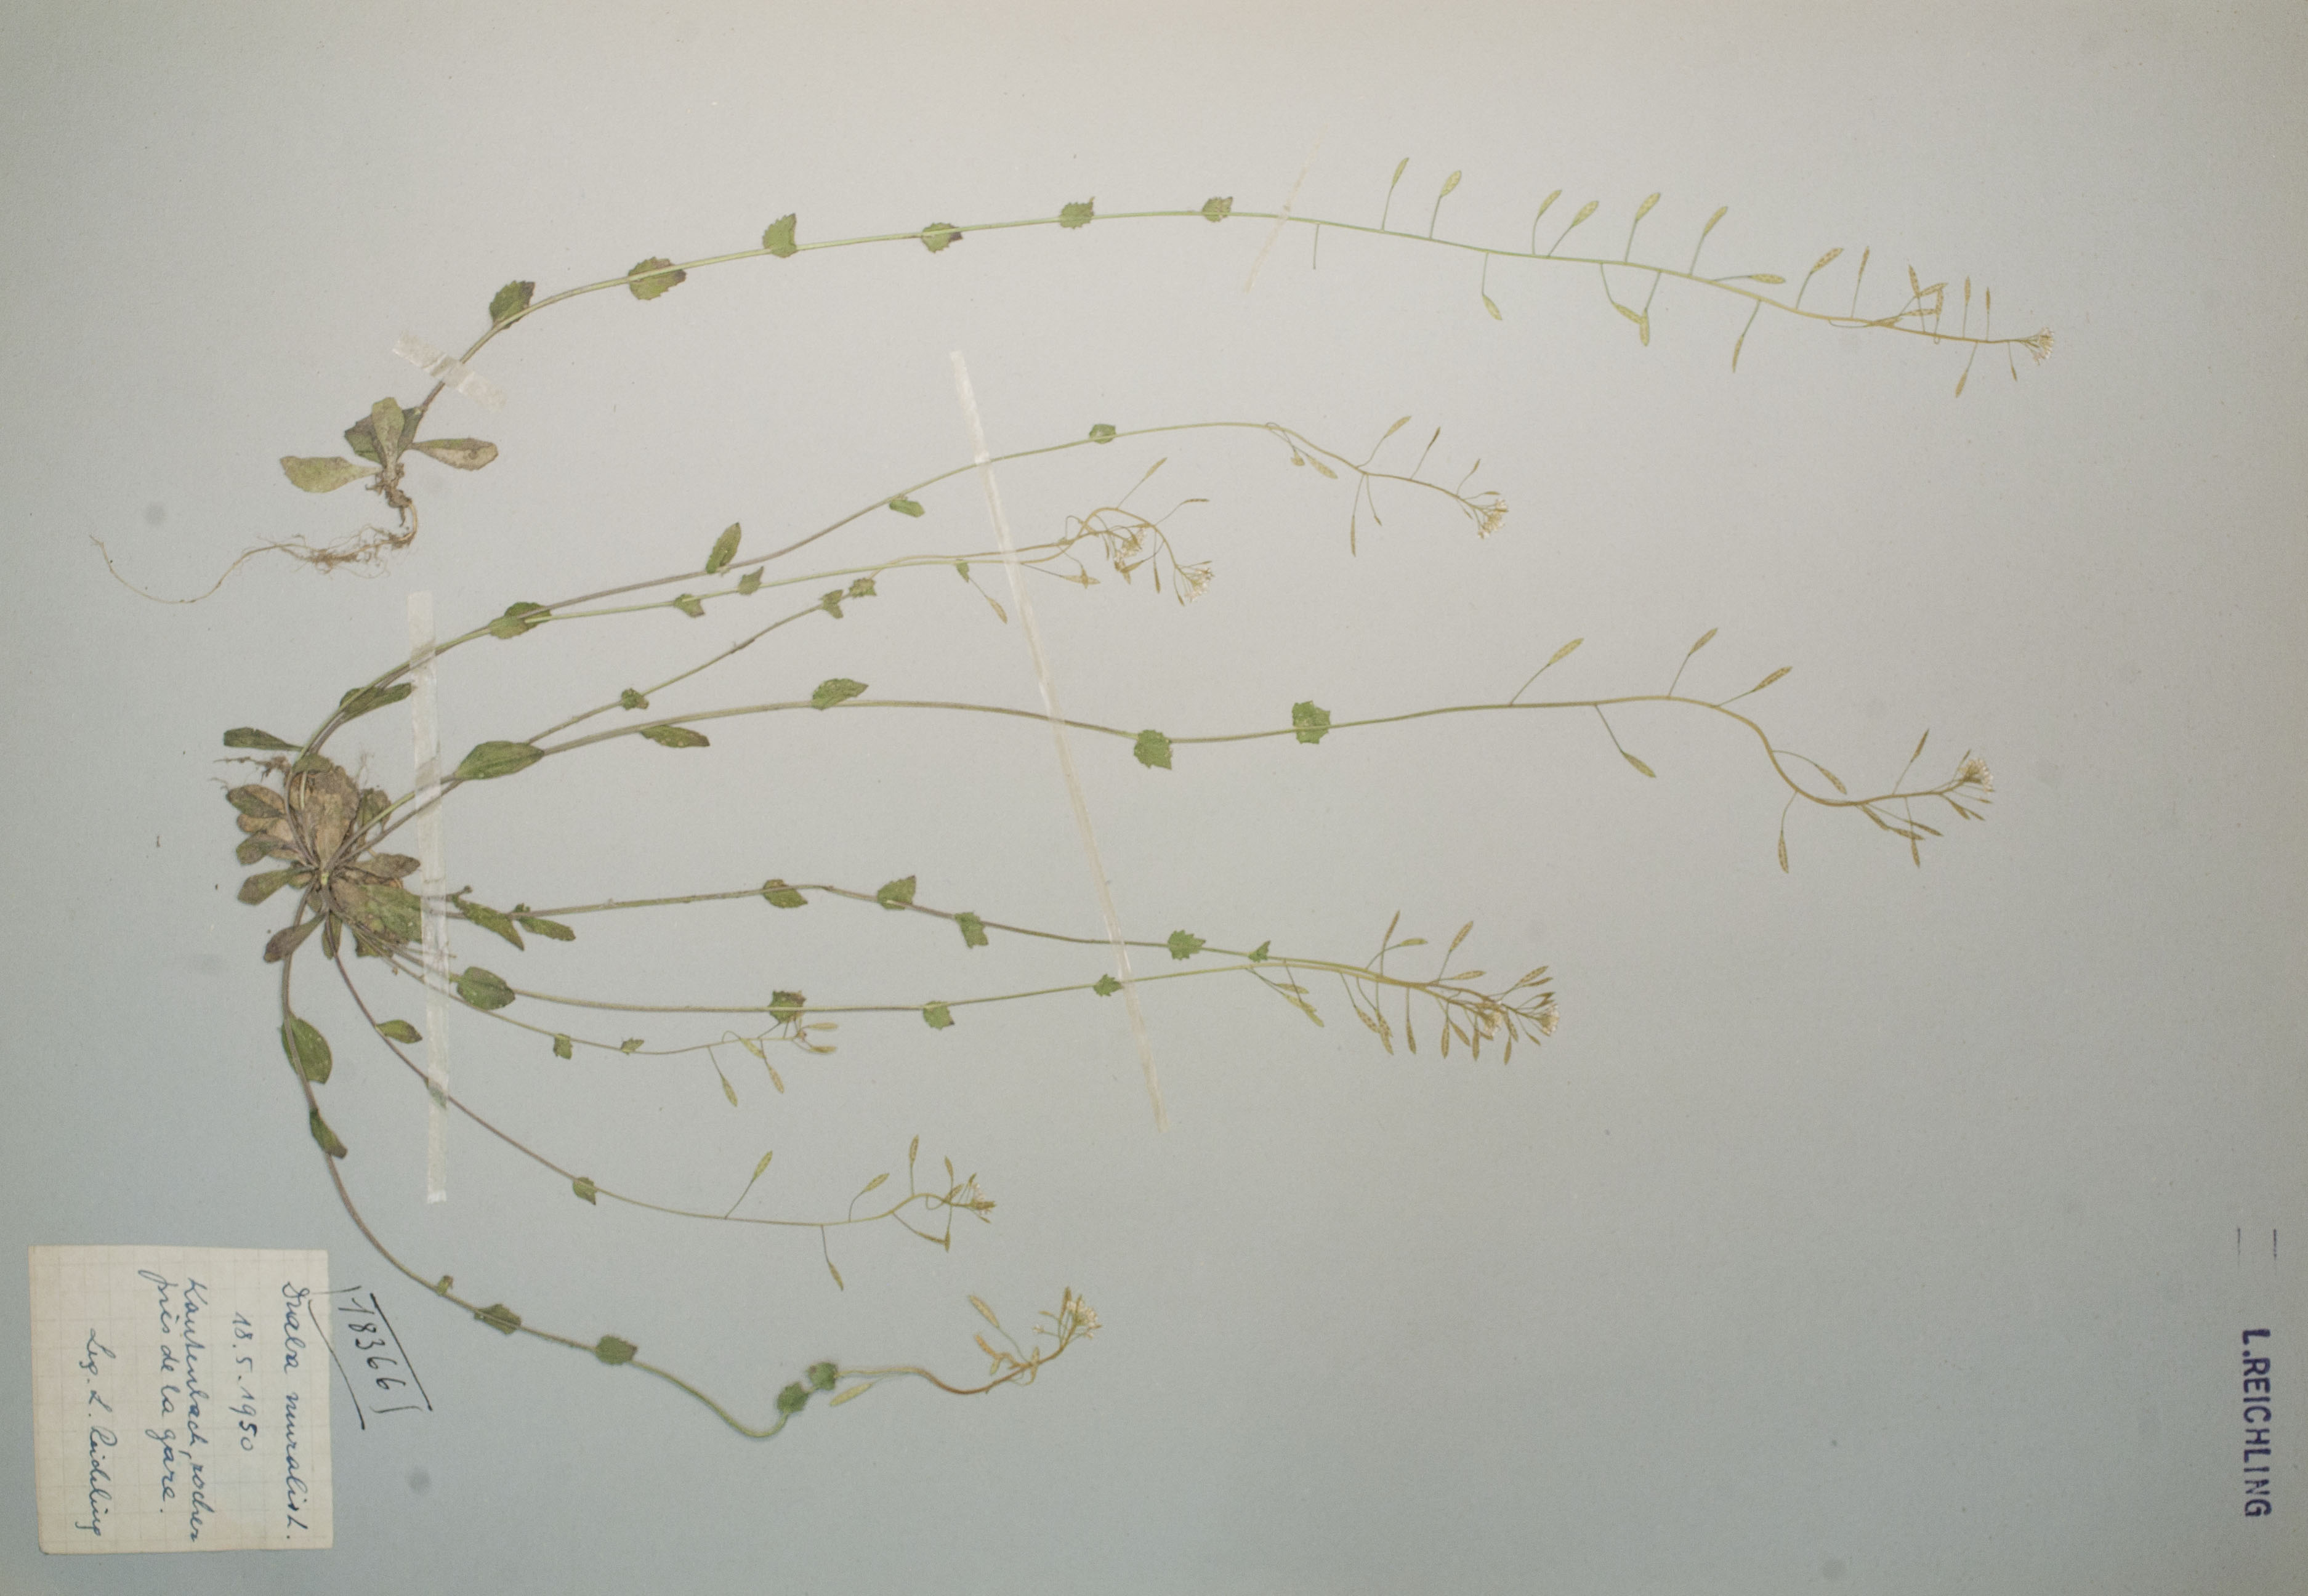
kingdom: Plantae
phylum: Tracheophyta
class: Magnoliopsida
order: Brassicales
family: Brassicaceae
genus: Drabella
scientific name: Drabella muralis
